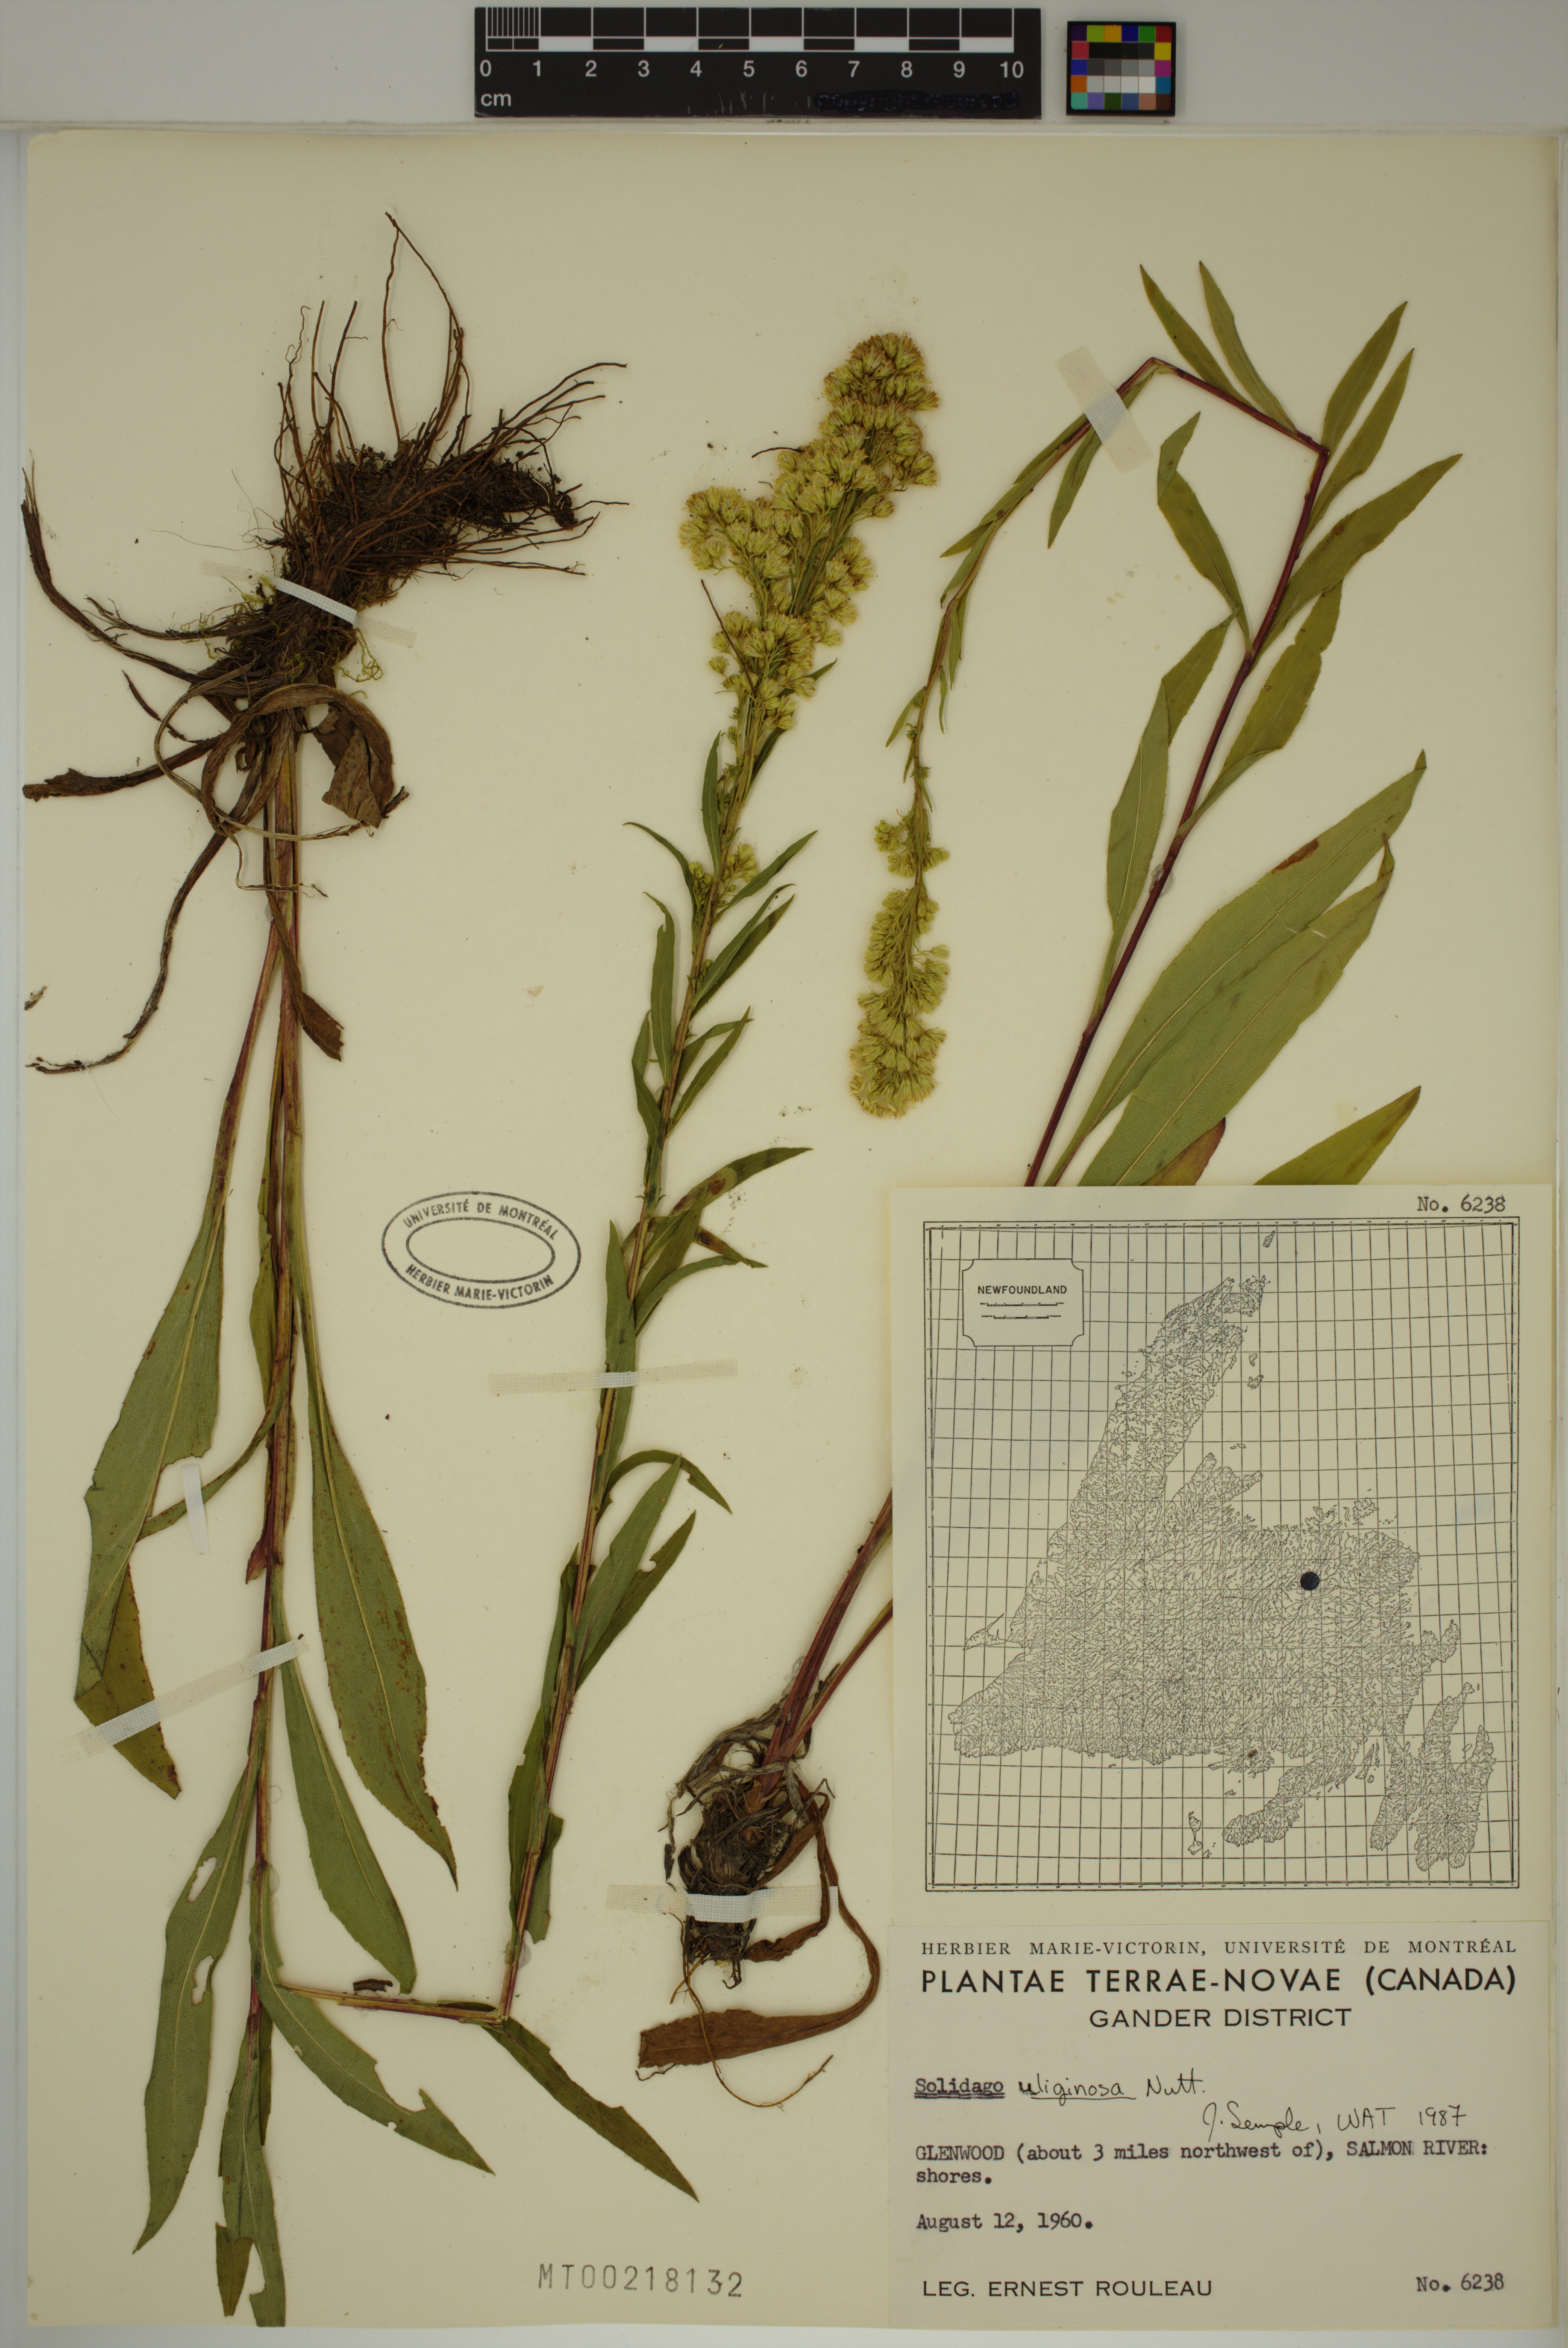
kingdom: Plantae
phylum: Tracheophyta
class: Magnoliopsida
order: Asterales
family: Asteraceae
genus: Solidago
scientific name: Solidago uliginosa
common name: Bog goldenrod
